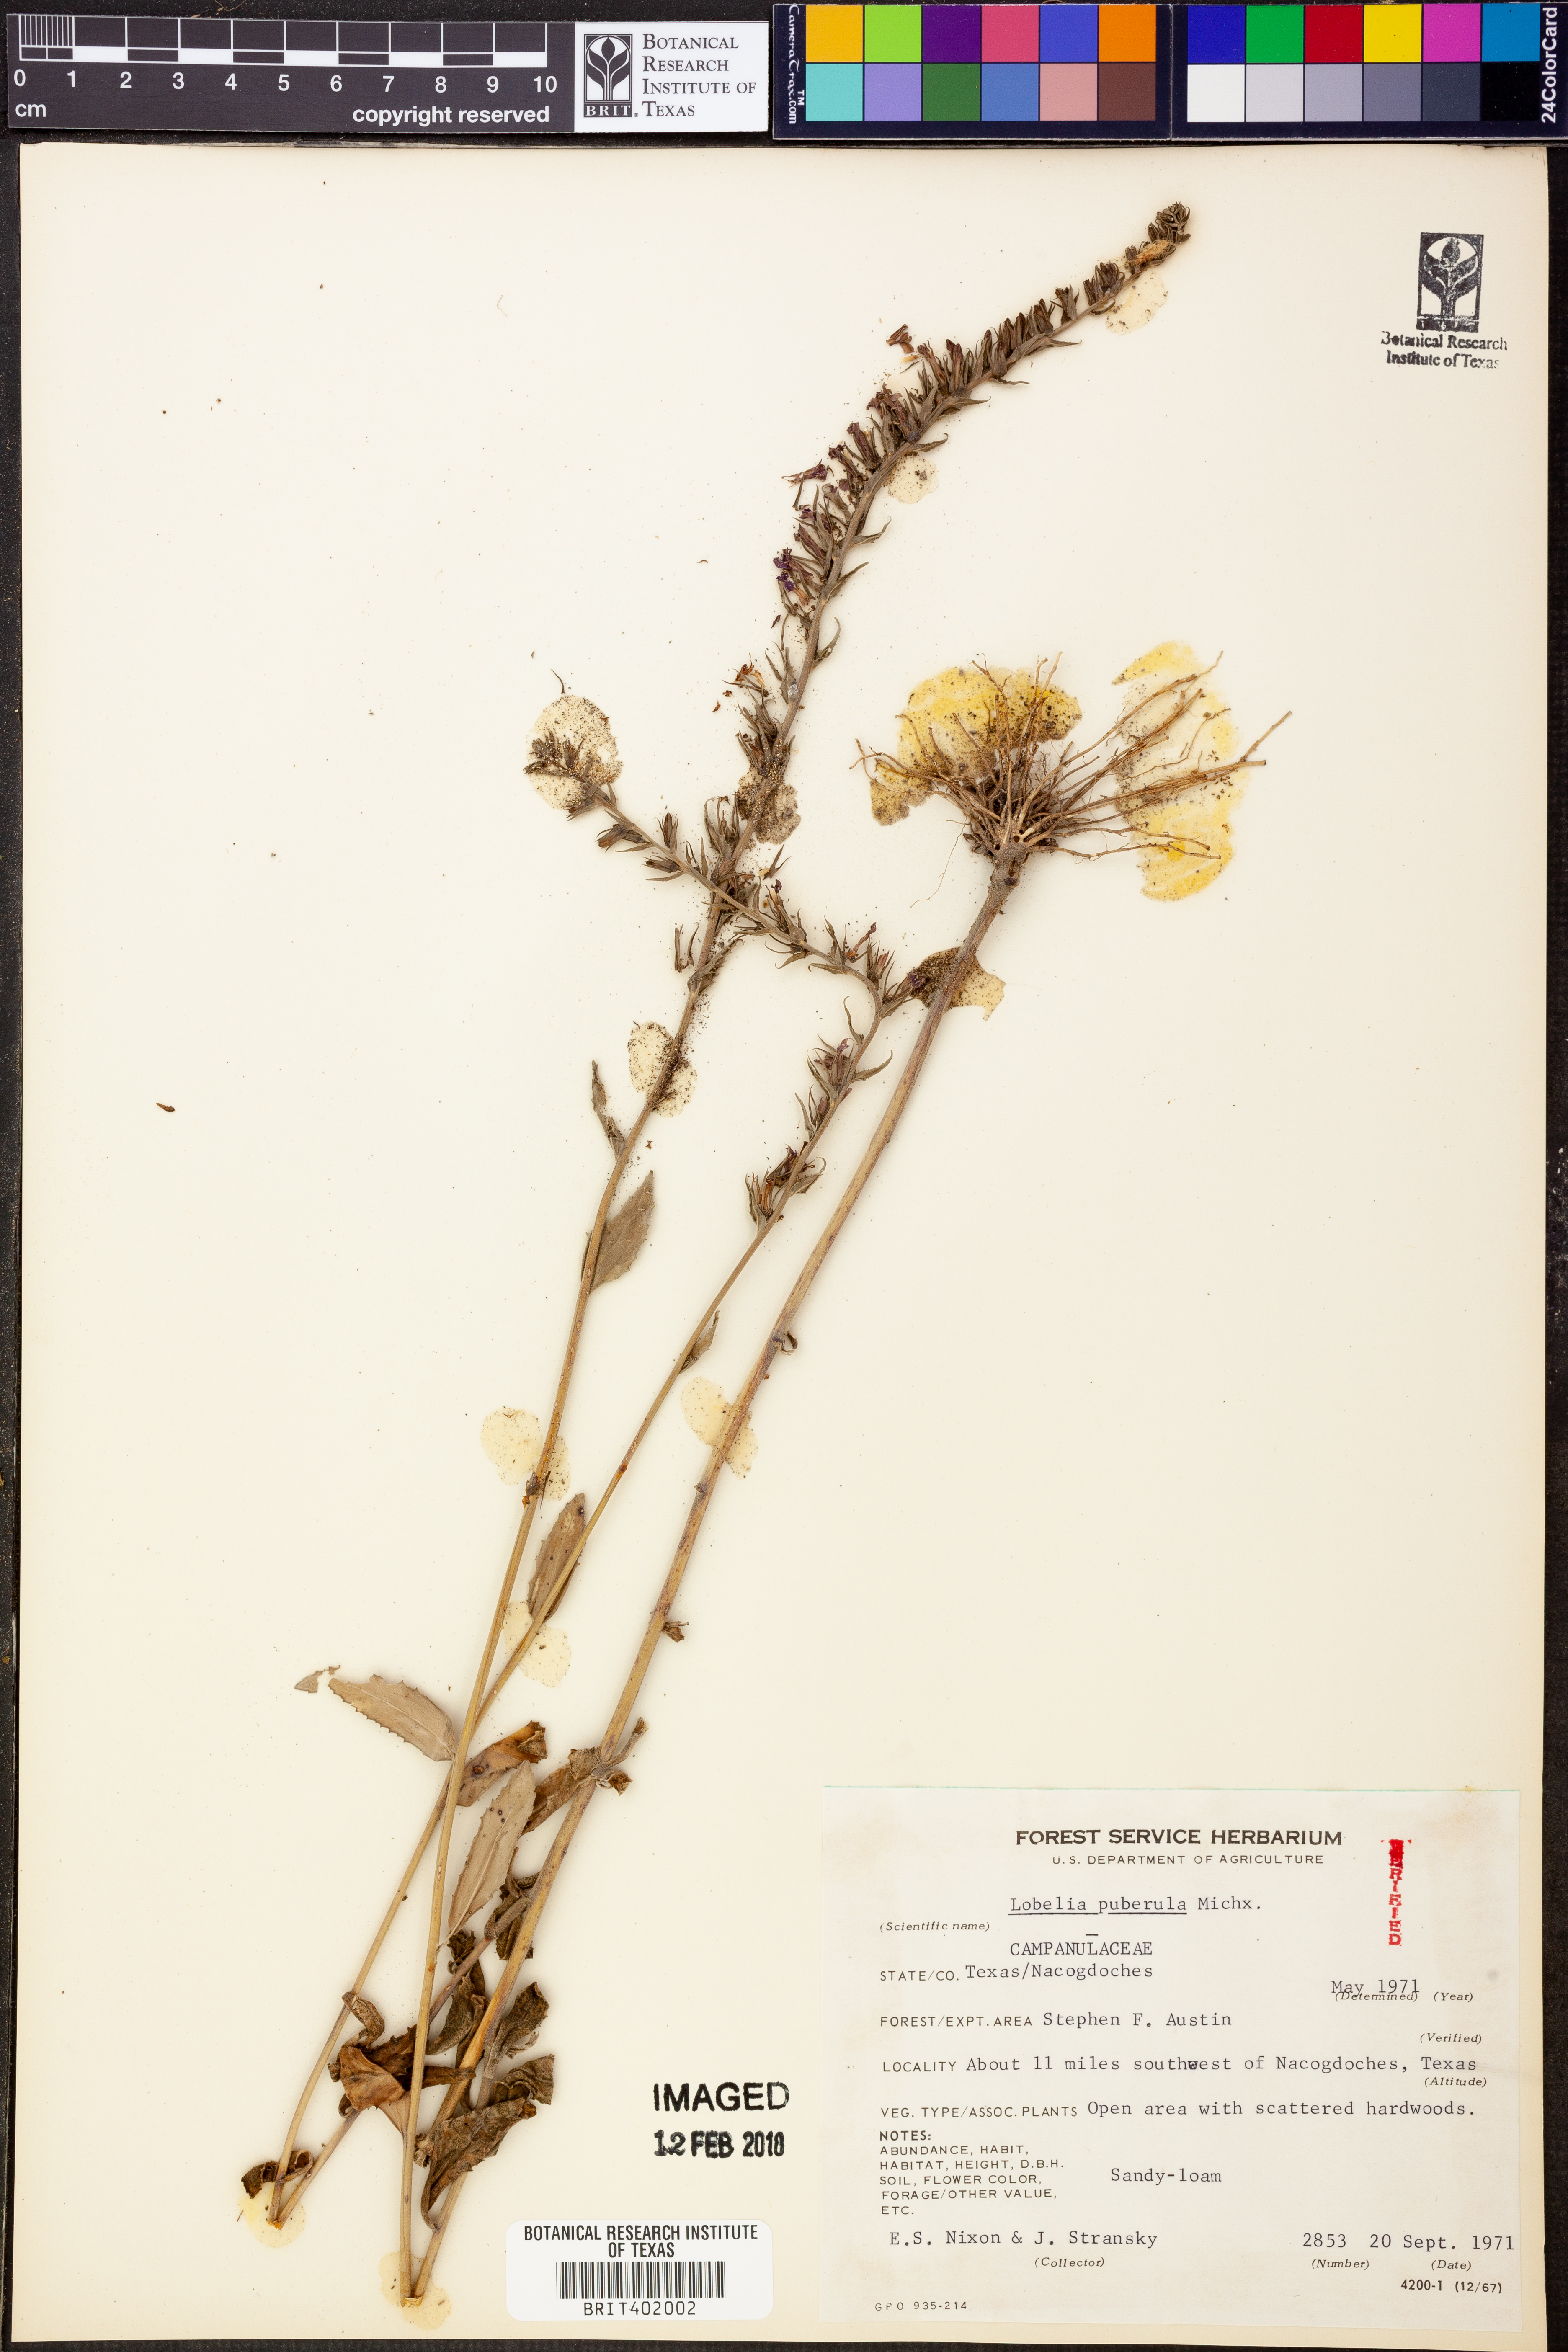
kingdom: Plantae
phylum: Tracheophyta
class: Magnoliopsida
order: Asterales
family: Campanulaceae
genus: Lobelia
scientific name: Lobelia puberula
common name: Purple dewdrop
